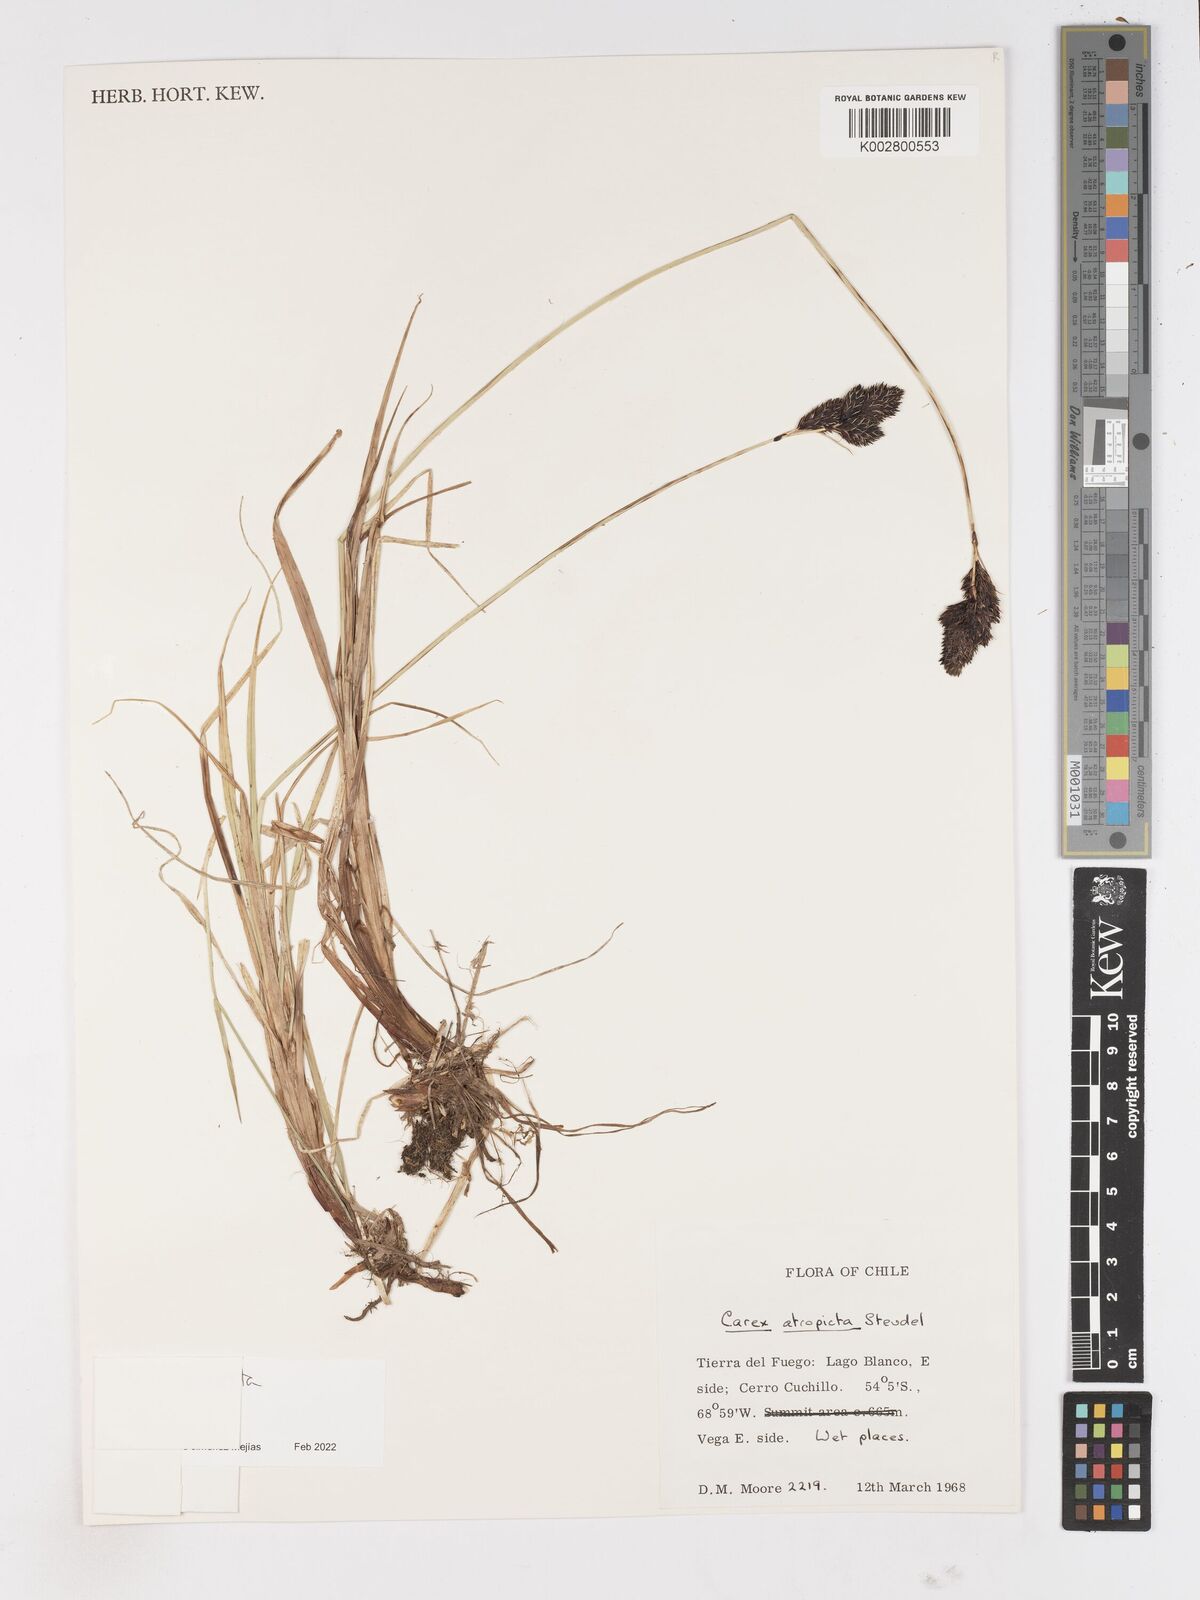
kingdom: Plantae
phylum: Tracheophyta
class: Liliopsida
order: Poales
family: Cyperaceae
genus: Carex
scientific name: Carex atropicta
